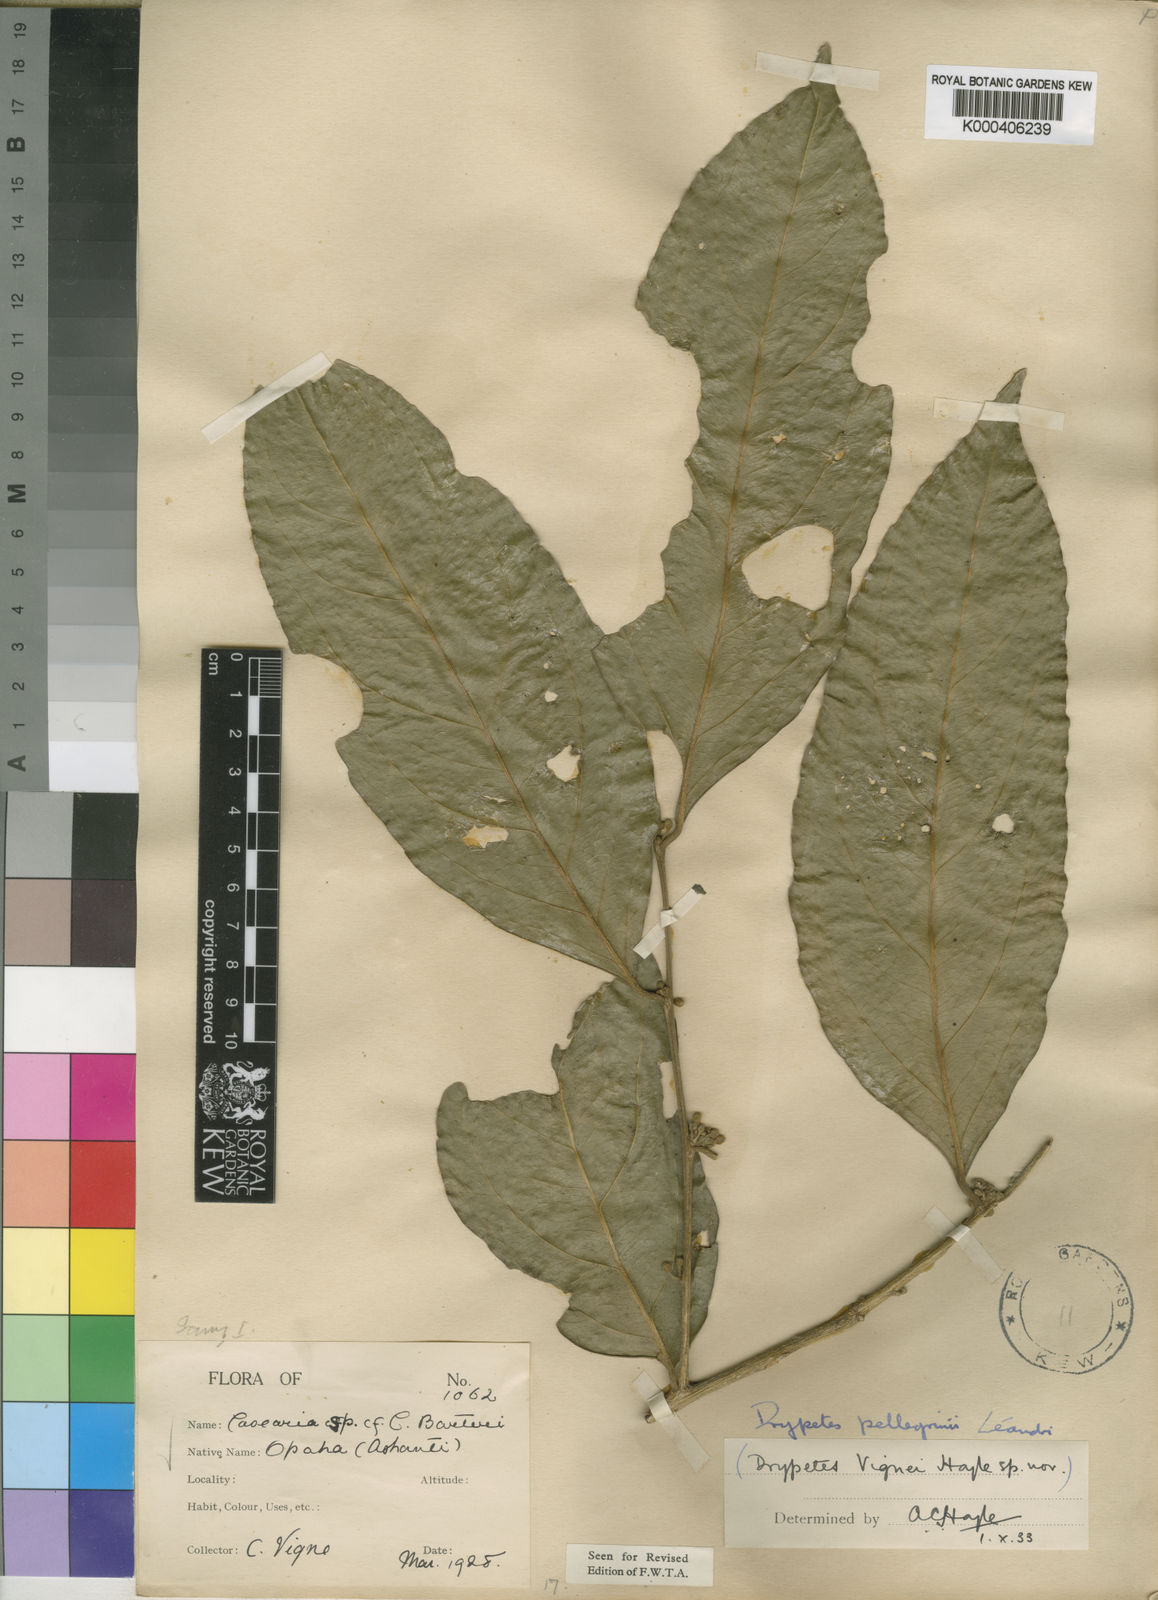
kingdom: Plantae
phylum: Tracheophyta
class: Magnoliopsida
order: Malpighiales
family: Putranjivaceae
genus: Drypetes
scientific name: Drypetes pellegrinii
